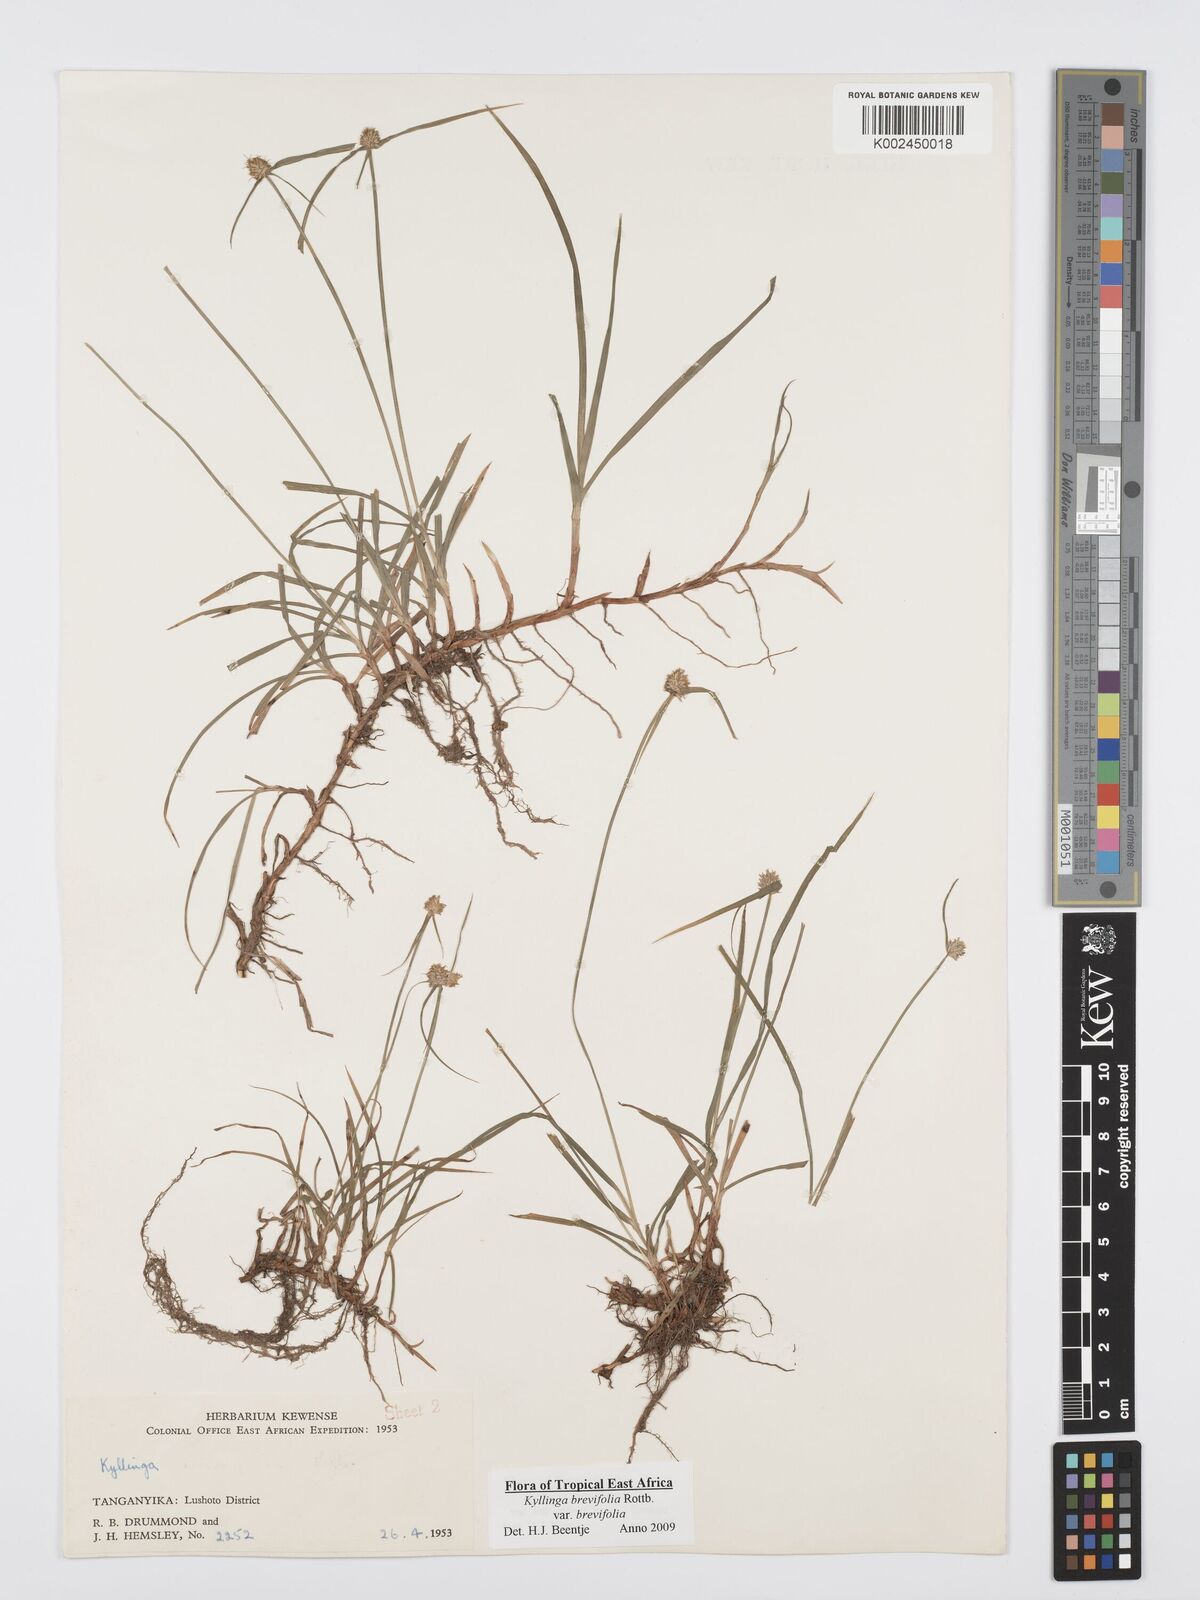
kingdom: Plantae
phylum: Tracheophyta
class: Liliopsida
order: Poales
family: Cyperaceae
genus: Cyperus
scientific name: Cyperus brevifolius
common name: Globe kyllinga
